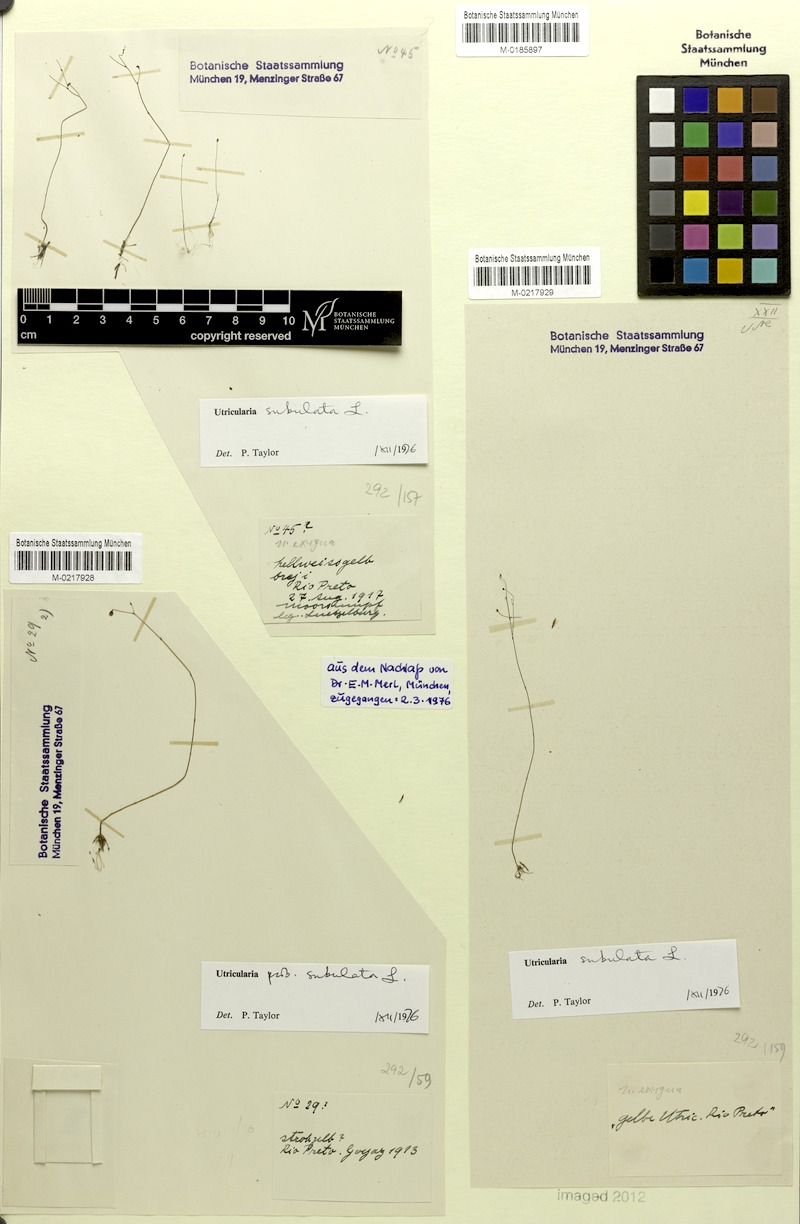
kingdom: Plantae
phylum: Tracheophyta
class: Magnoliopsida
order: Lamiales
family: Lentibulariaceae
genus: Utricularia
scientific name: Utricularia subulata
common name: Tiny bladderwort
